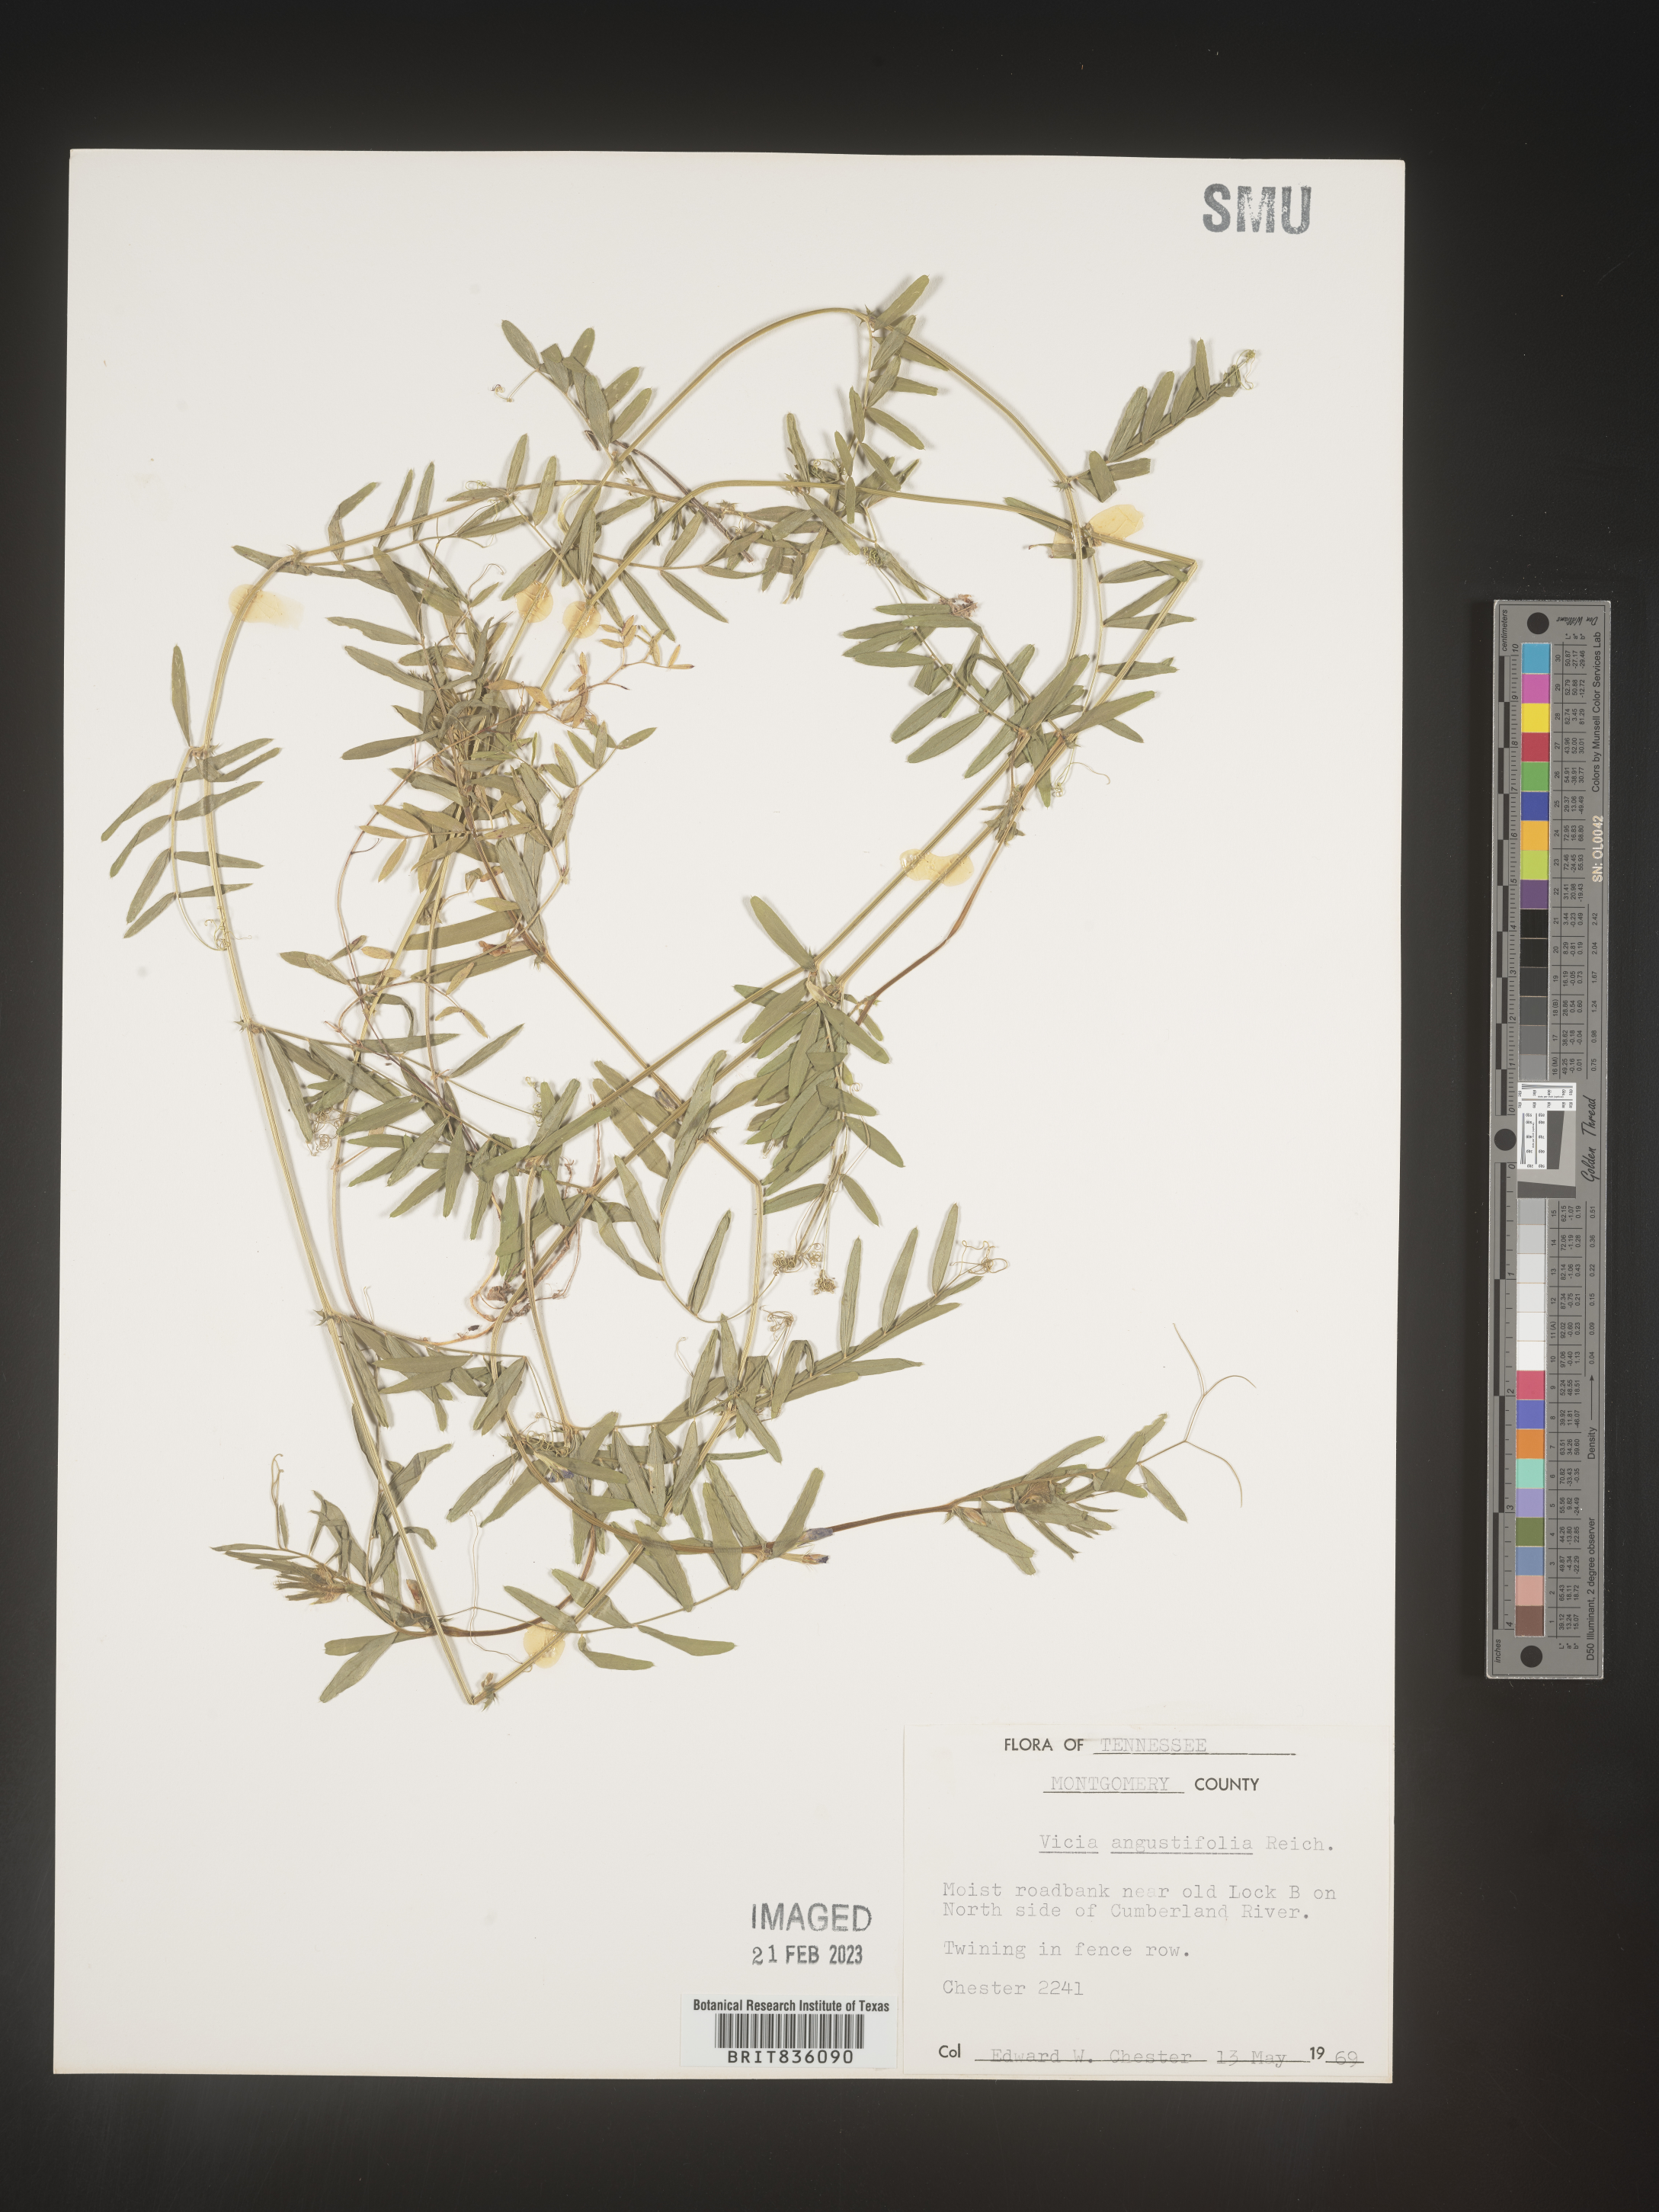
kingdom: Plantae
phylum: Tracheophyta
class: Magnoliopsida
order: Fabales
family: Fabaceae
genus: Vicia
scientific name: Vicia sativa
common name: Garden vetch
